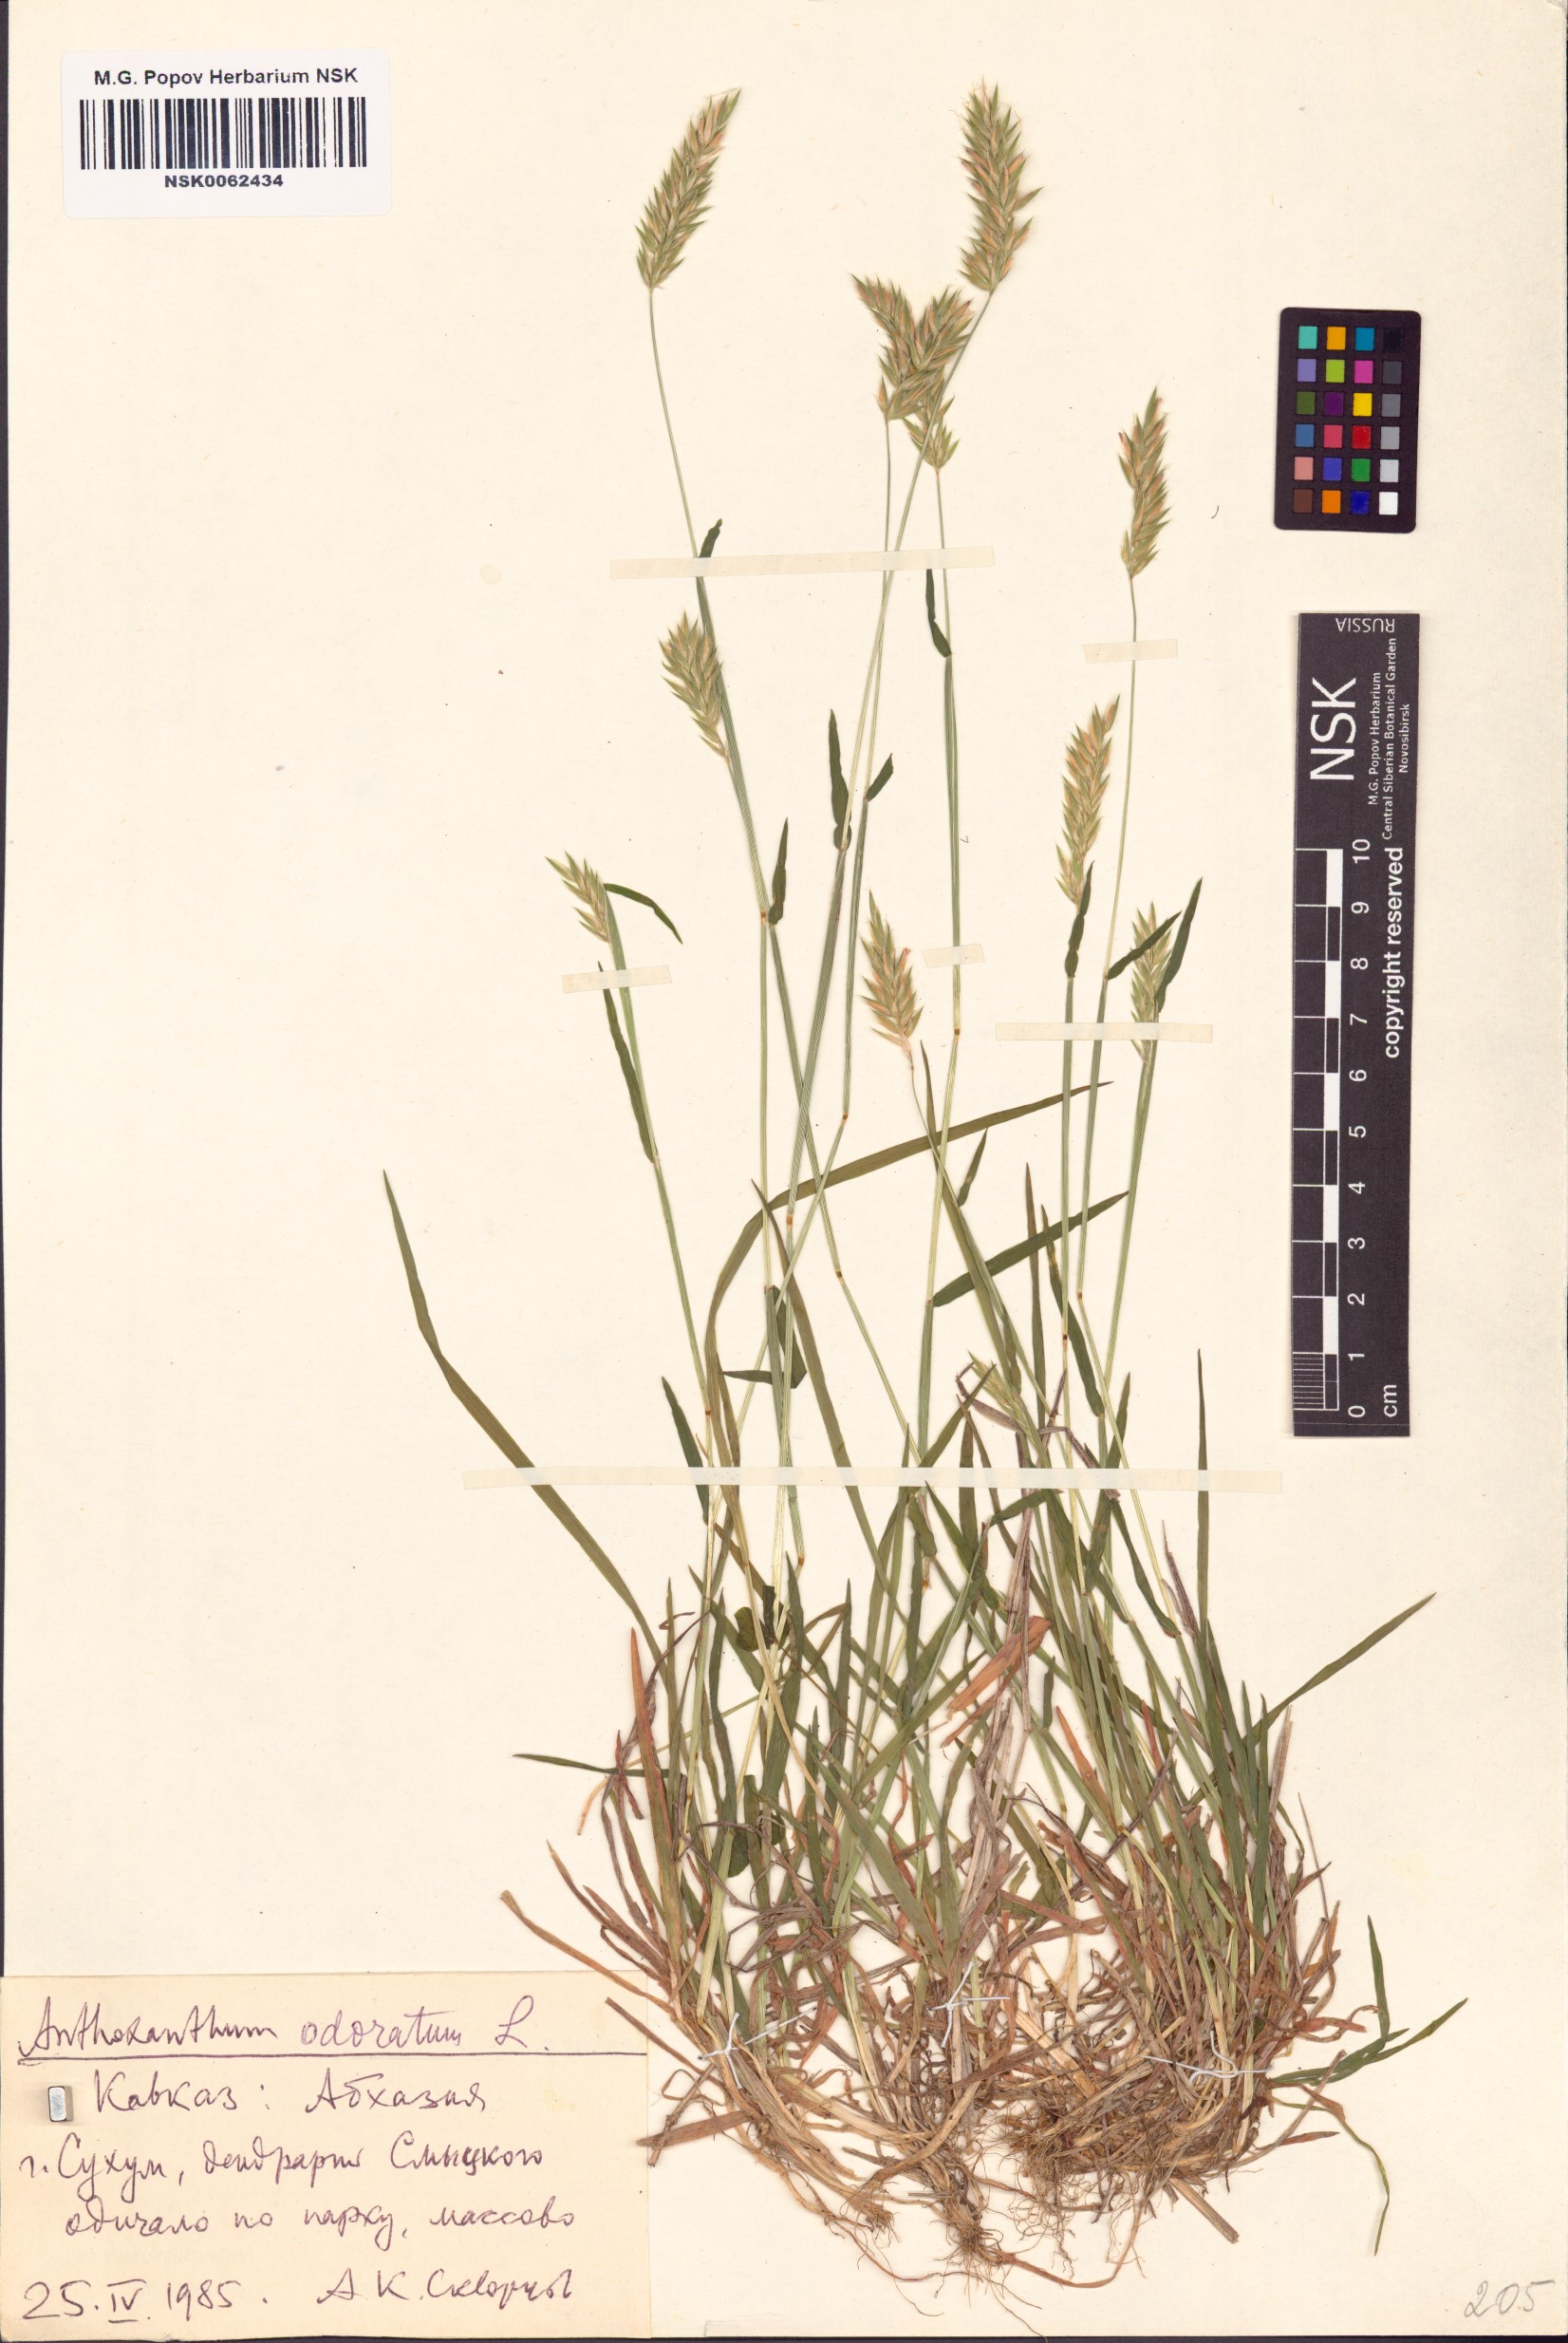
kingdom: Plantae
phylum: Tracheophyta
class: Liliopsida
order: Poales
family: Poaceae
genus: Anthoxanthum
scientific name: Anthoxanthum odoratum
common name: Sweet vernalgrass
